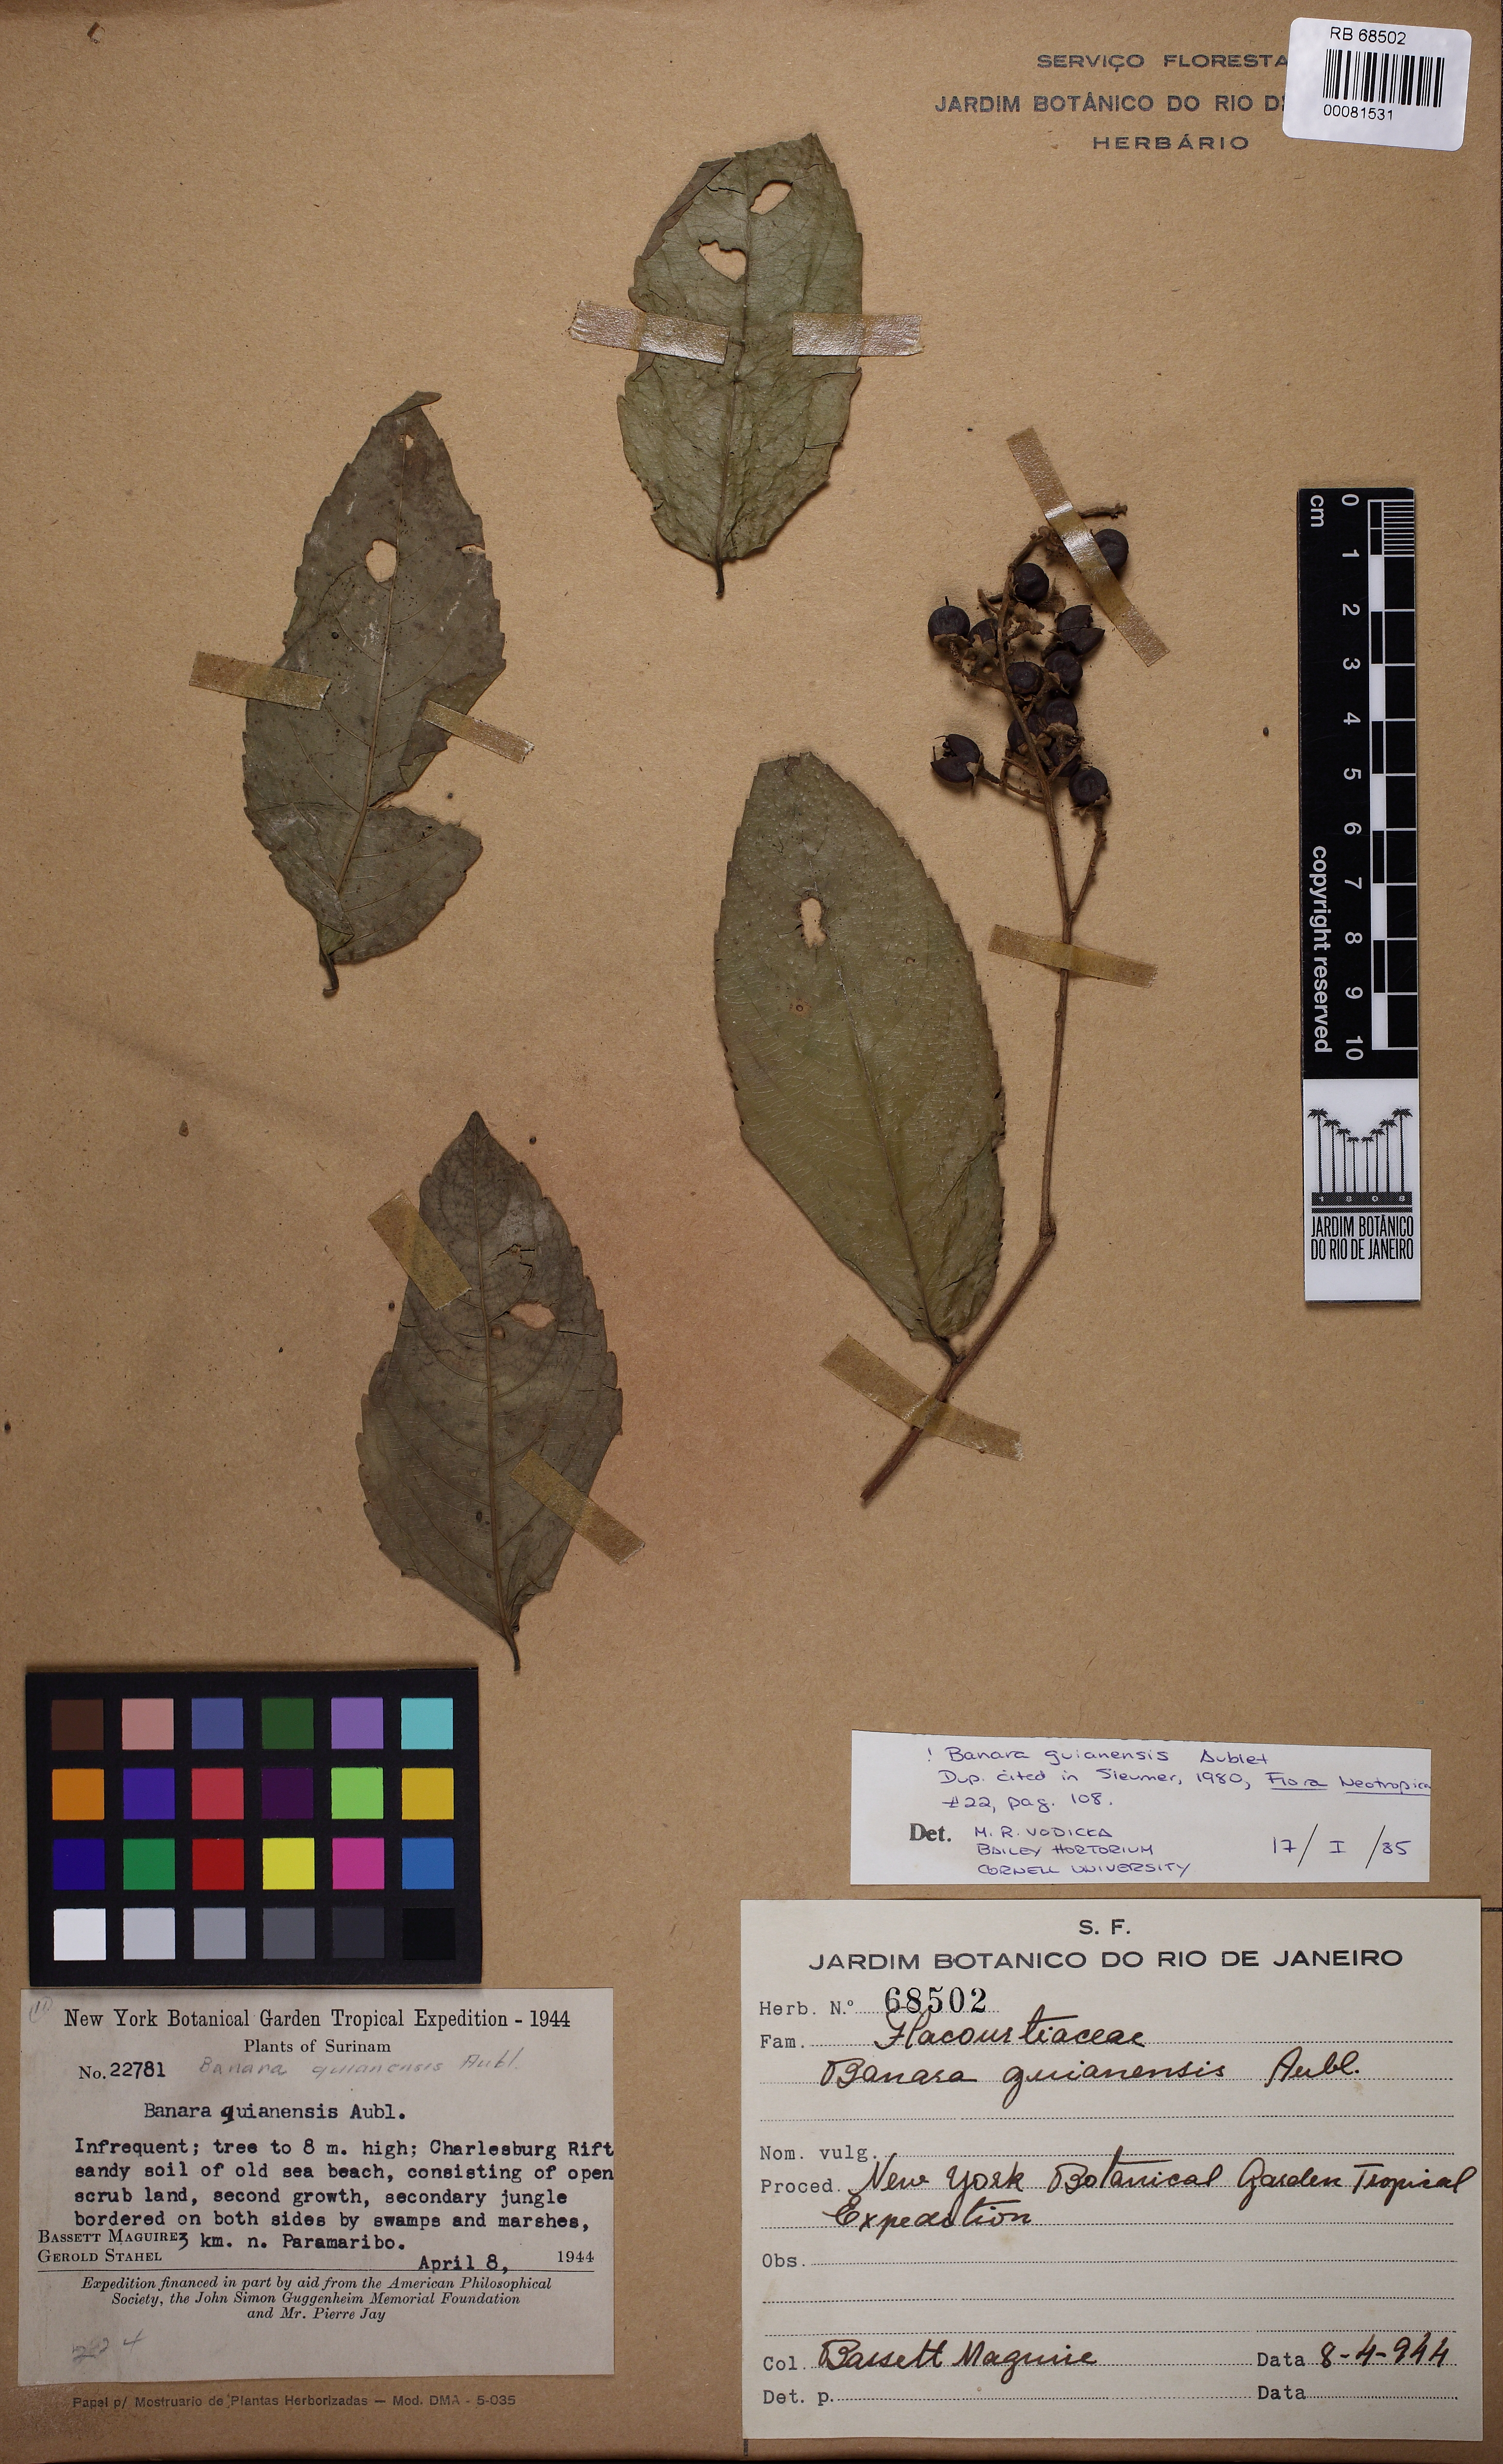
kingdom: Plantae
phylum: Tracheophyta
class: Magnoliopsida
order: Malpighiales
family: Salicaceae
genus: Banara
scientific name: Banara guianensis
